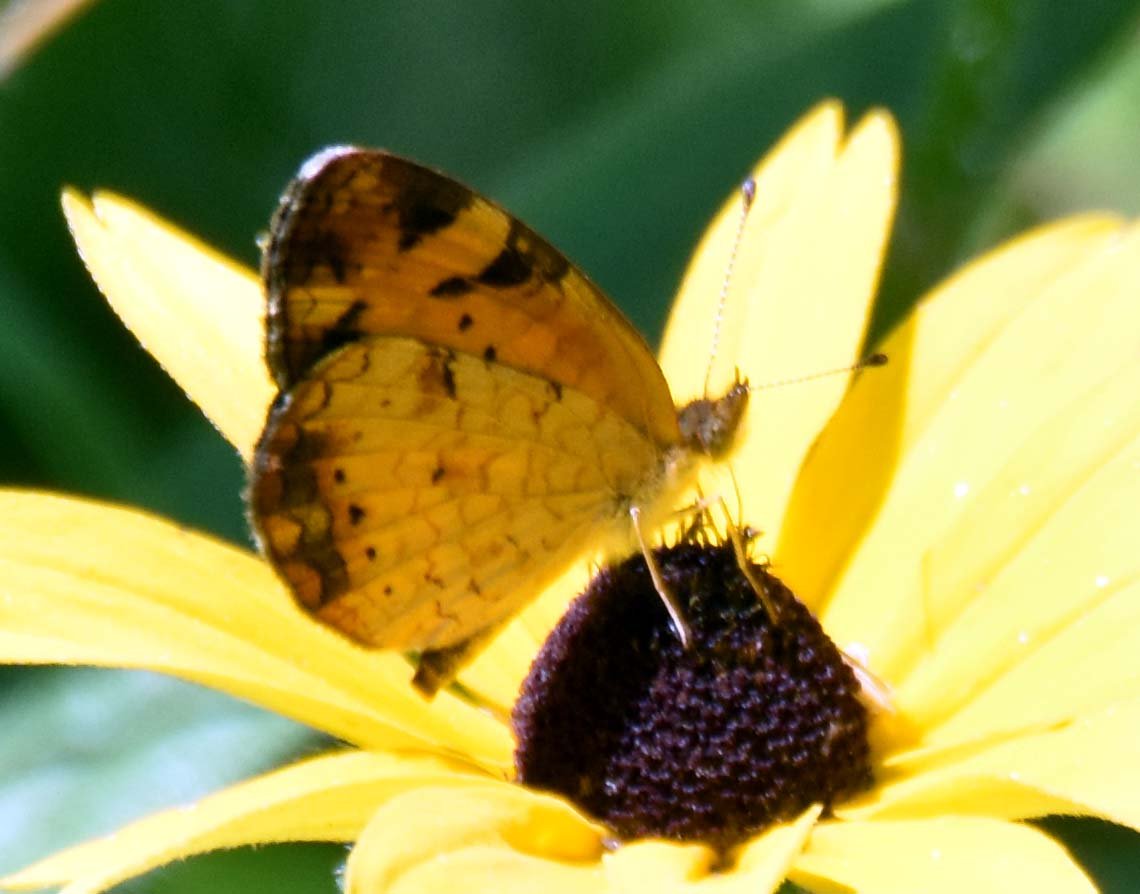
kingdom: Animalia
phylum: Arthropoda
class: Insecta
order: Lepidoptera
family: Nymphalidae
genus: Phyciodes
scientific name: Phyciodes tharos
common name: Pearl Crescent
